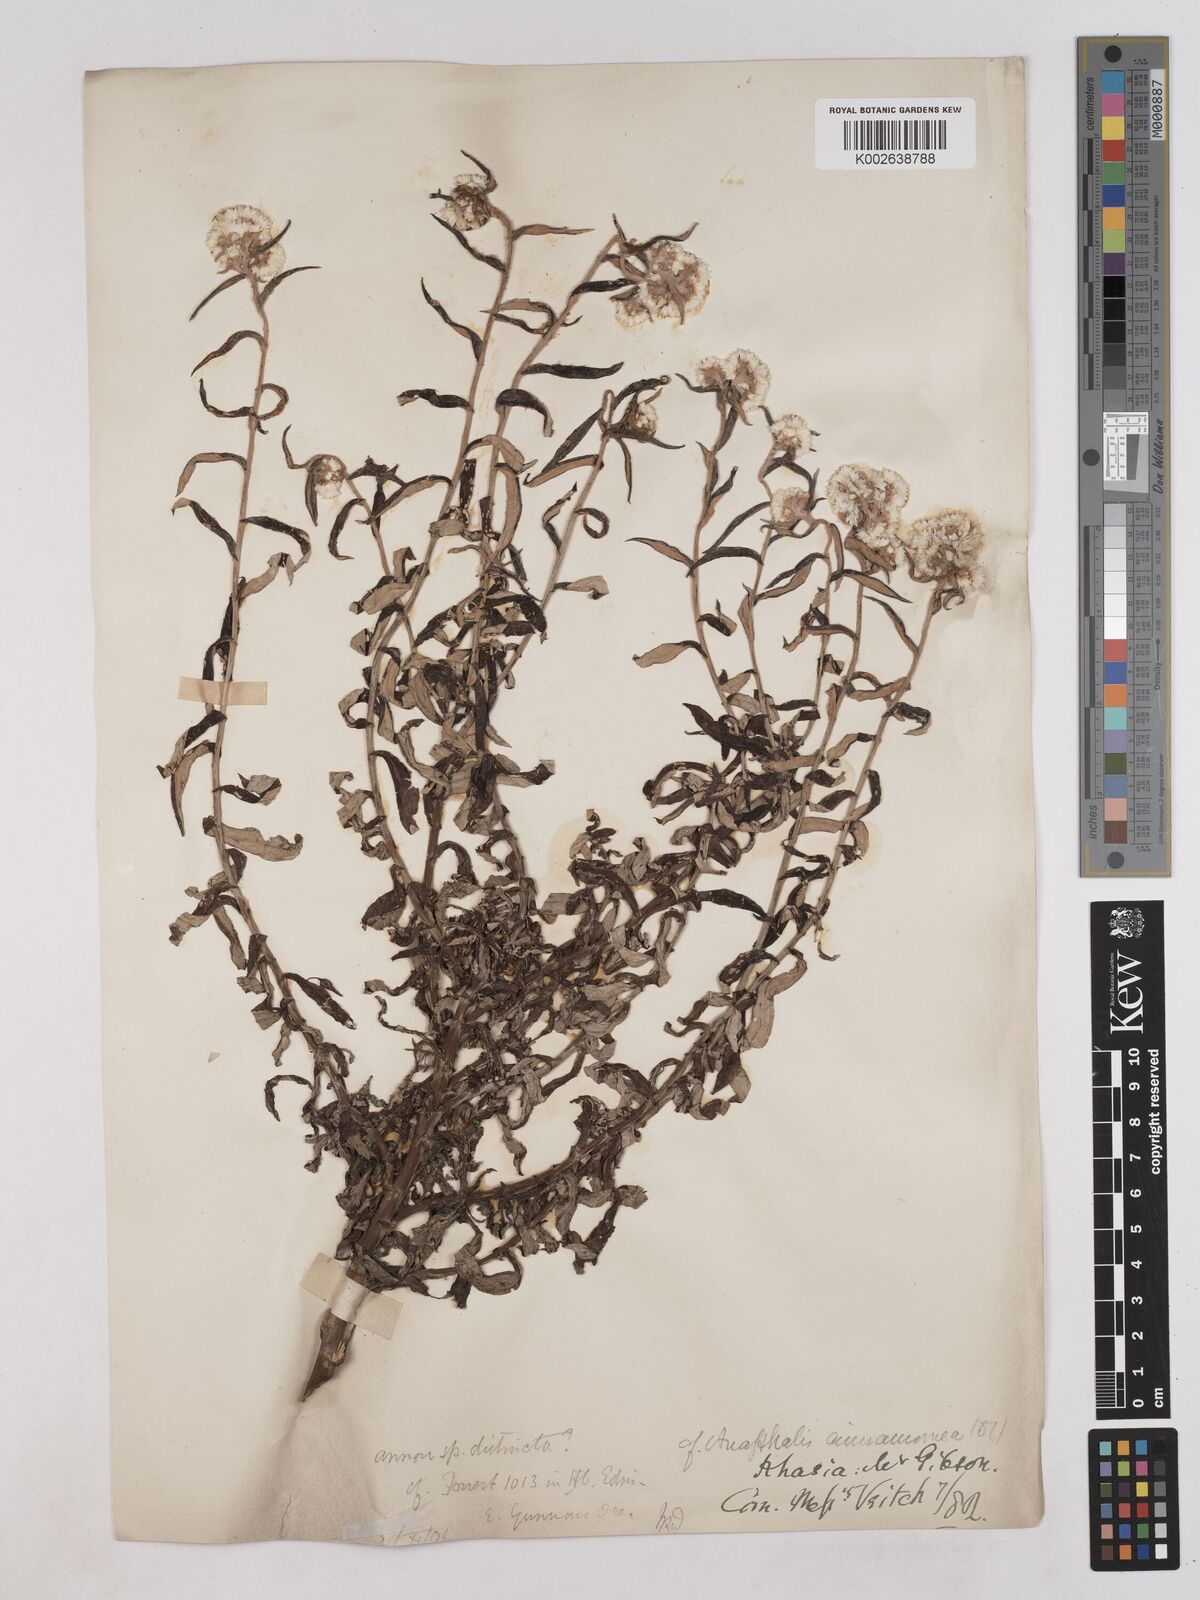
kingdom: Plantae
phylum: Tracheophyta
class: Magnoliopsida
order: Asterales
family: Asteraceae
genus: Anaphalis
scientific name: Anaphalis marcescens
